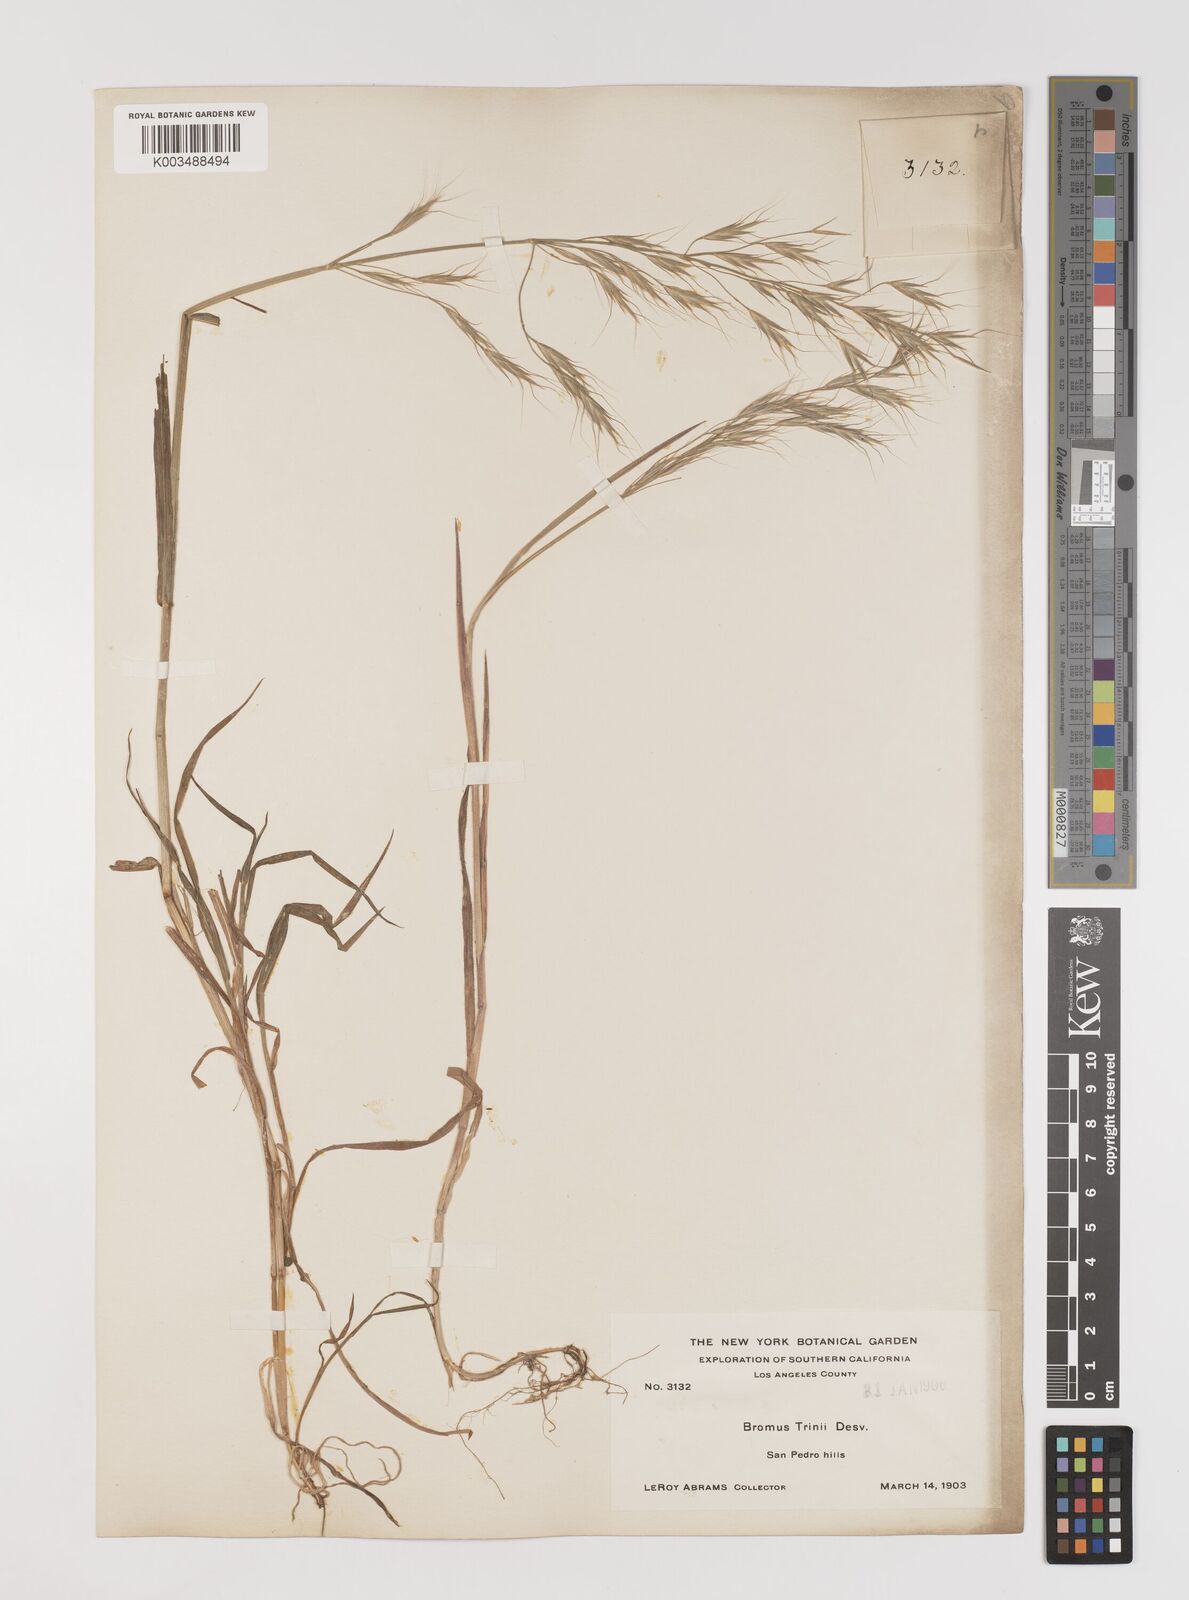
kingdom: Plantae
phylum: Tracheophyta
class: Liliopsida
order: Poales
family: Poaceae
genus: Bromus
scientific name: Bromus berteroanus
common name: Chilean chess
